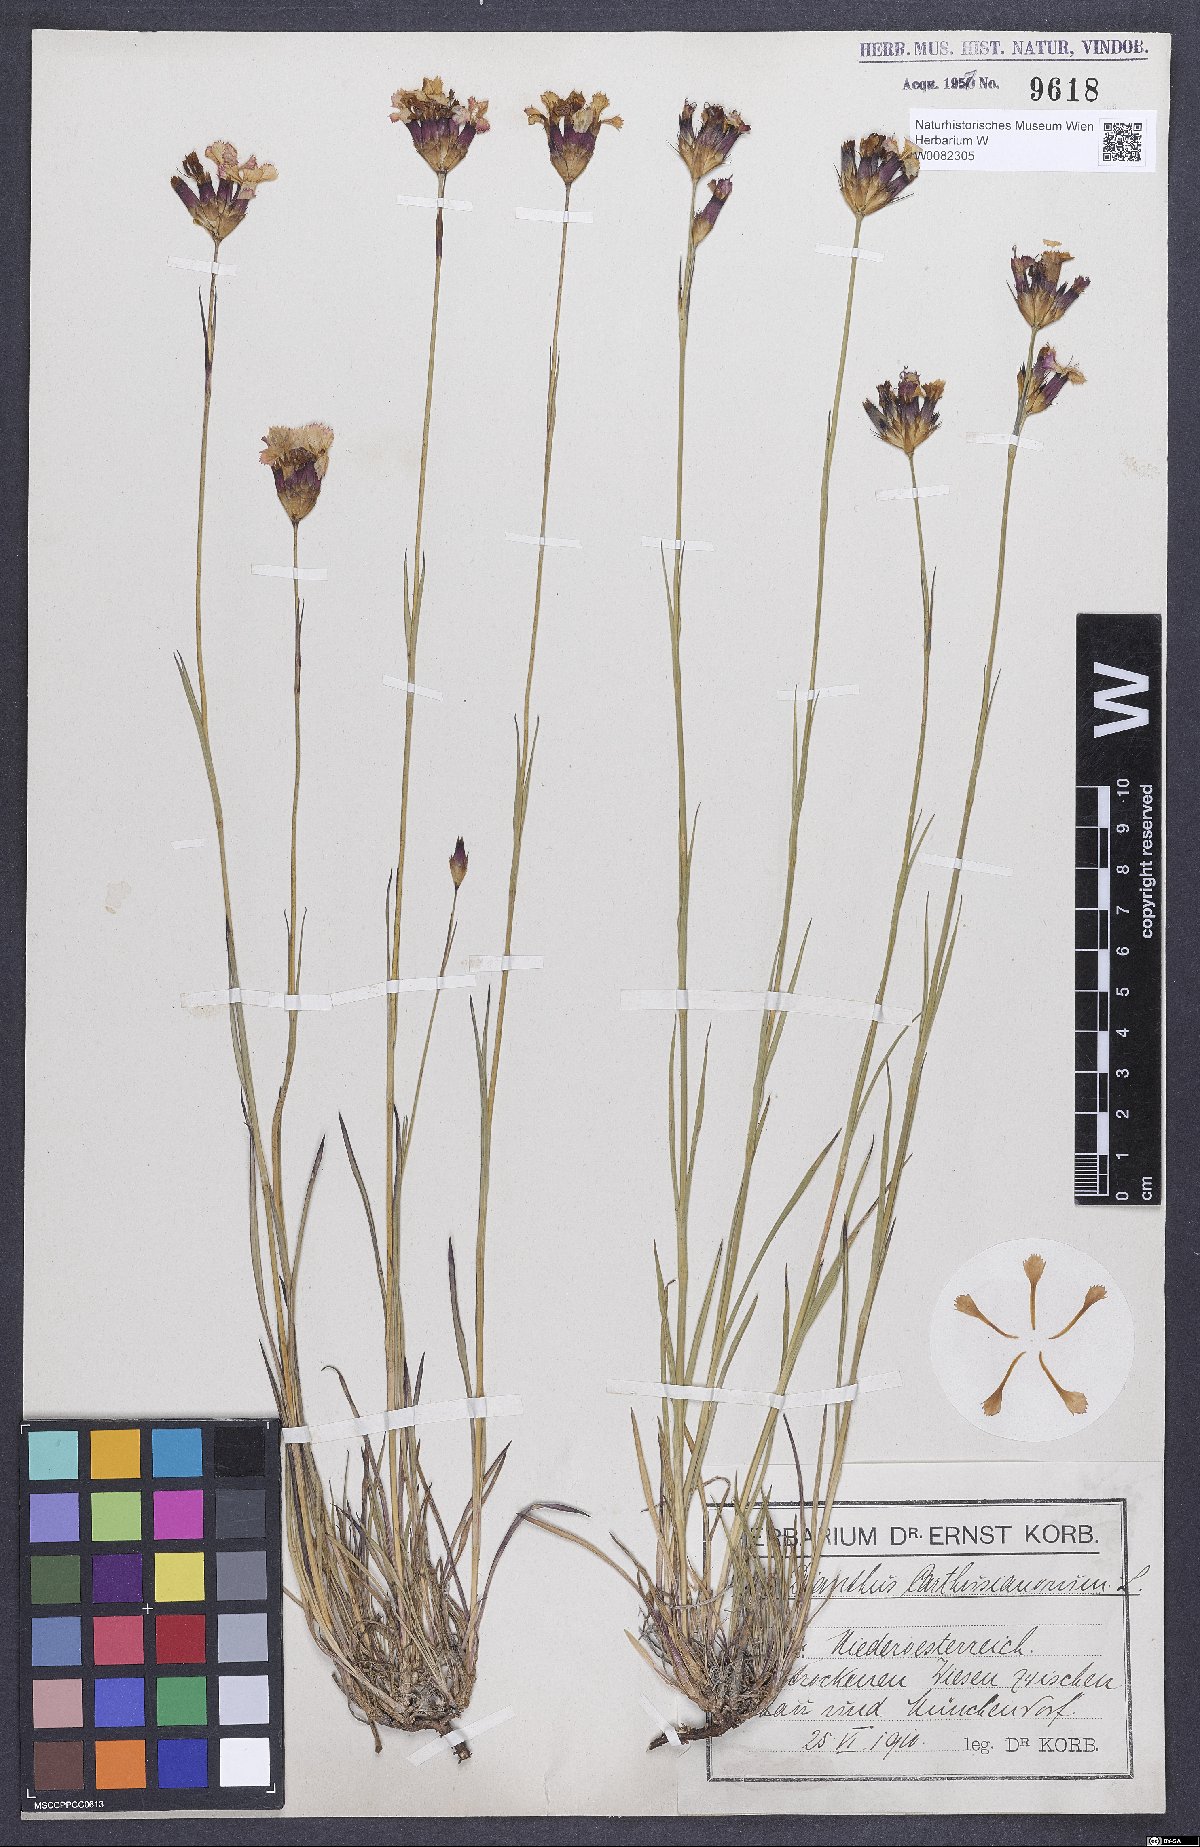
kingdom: Plantae
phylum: Tracheophyta
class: Magnoliopsida
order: Caryophyllales
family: Caryophyllaceae
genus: Dianthus
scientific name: Dianthus carthusianorum
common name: Carthusian pink
